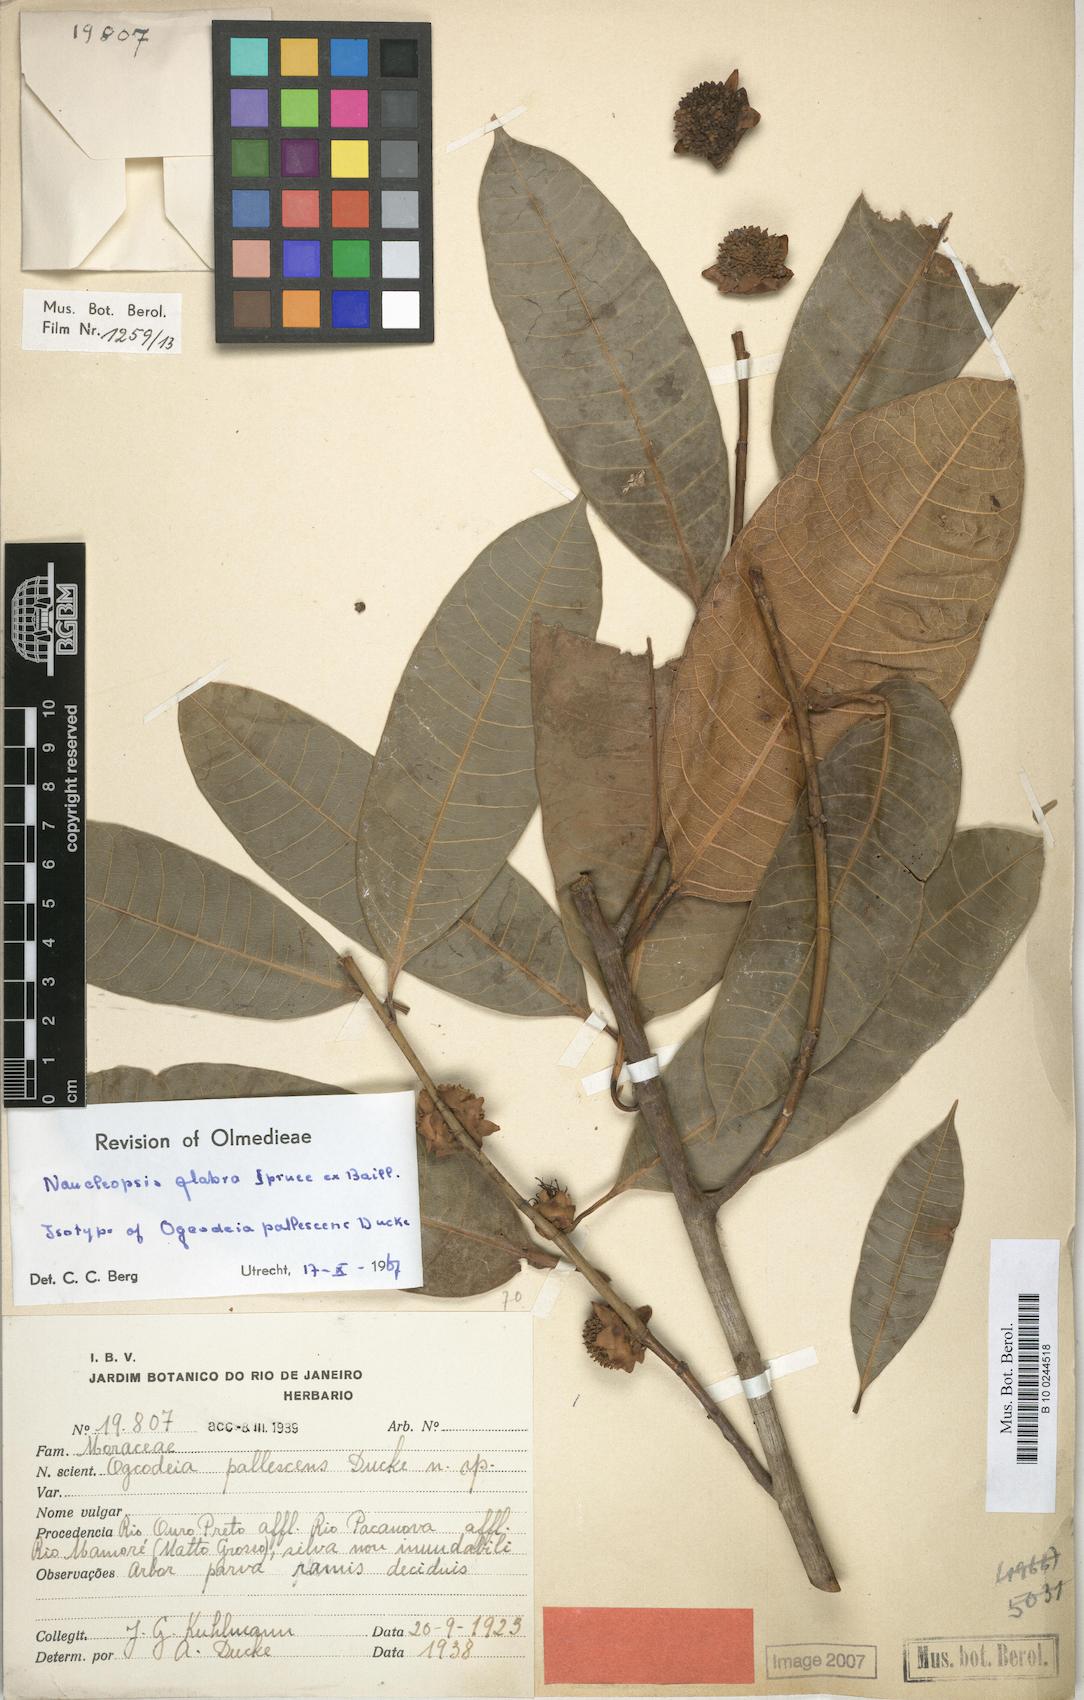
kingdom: Plantae
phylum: Tracheophyta
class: Magnoliopsida
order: Rosales
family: Moraceae
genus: Naucleopsis
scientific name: Naucleopsis glabra
